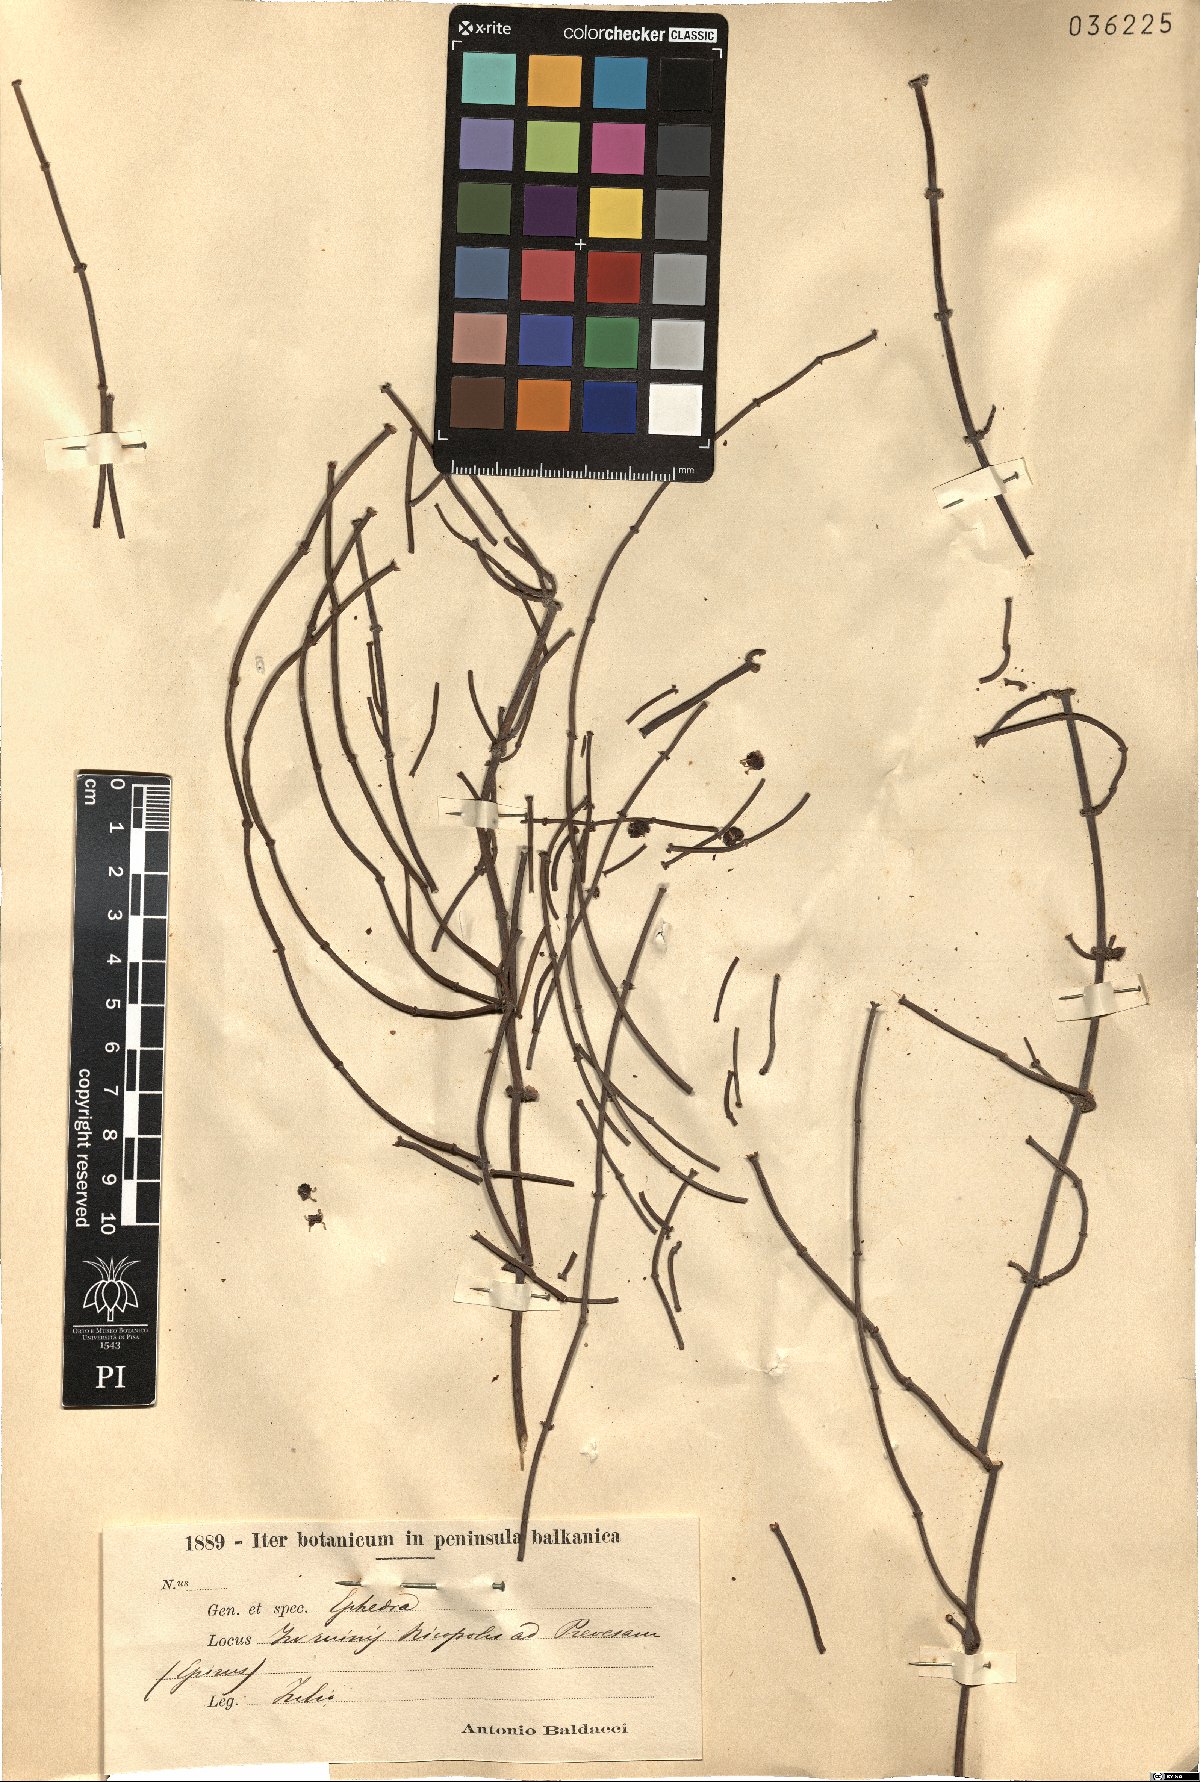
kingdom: Plantae
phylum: Tracheophyta
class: Gnetopsida
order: Ephedrales
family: Ephedraceae
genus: Ephedra
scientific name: Ephedra
